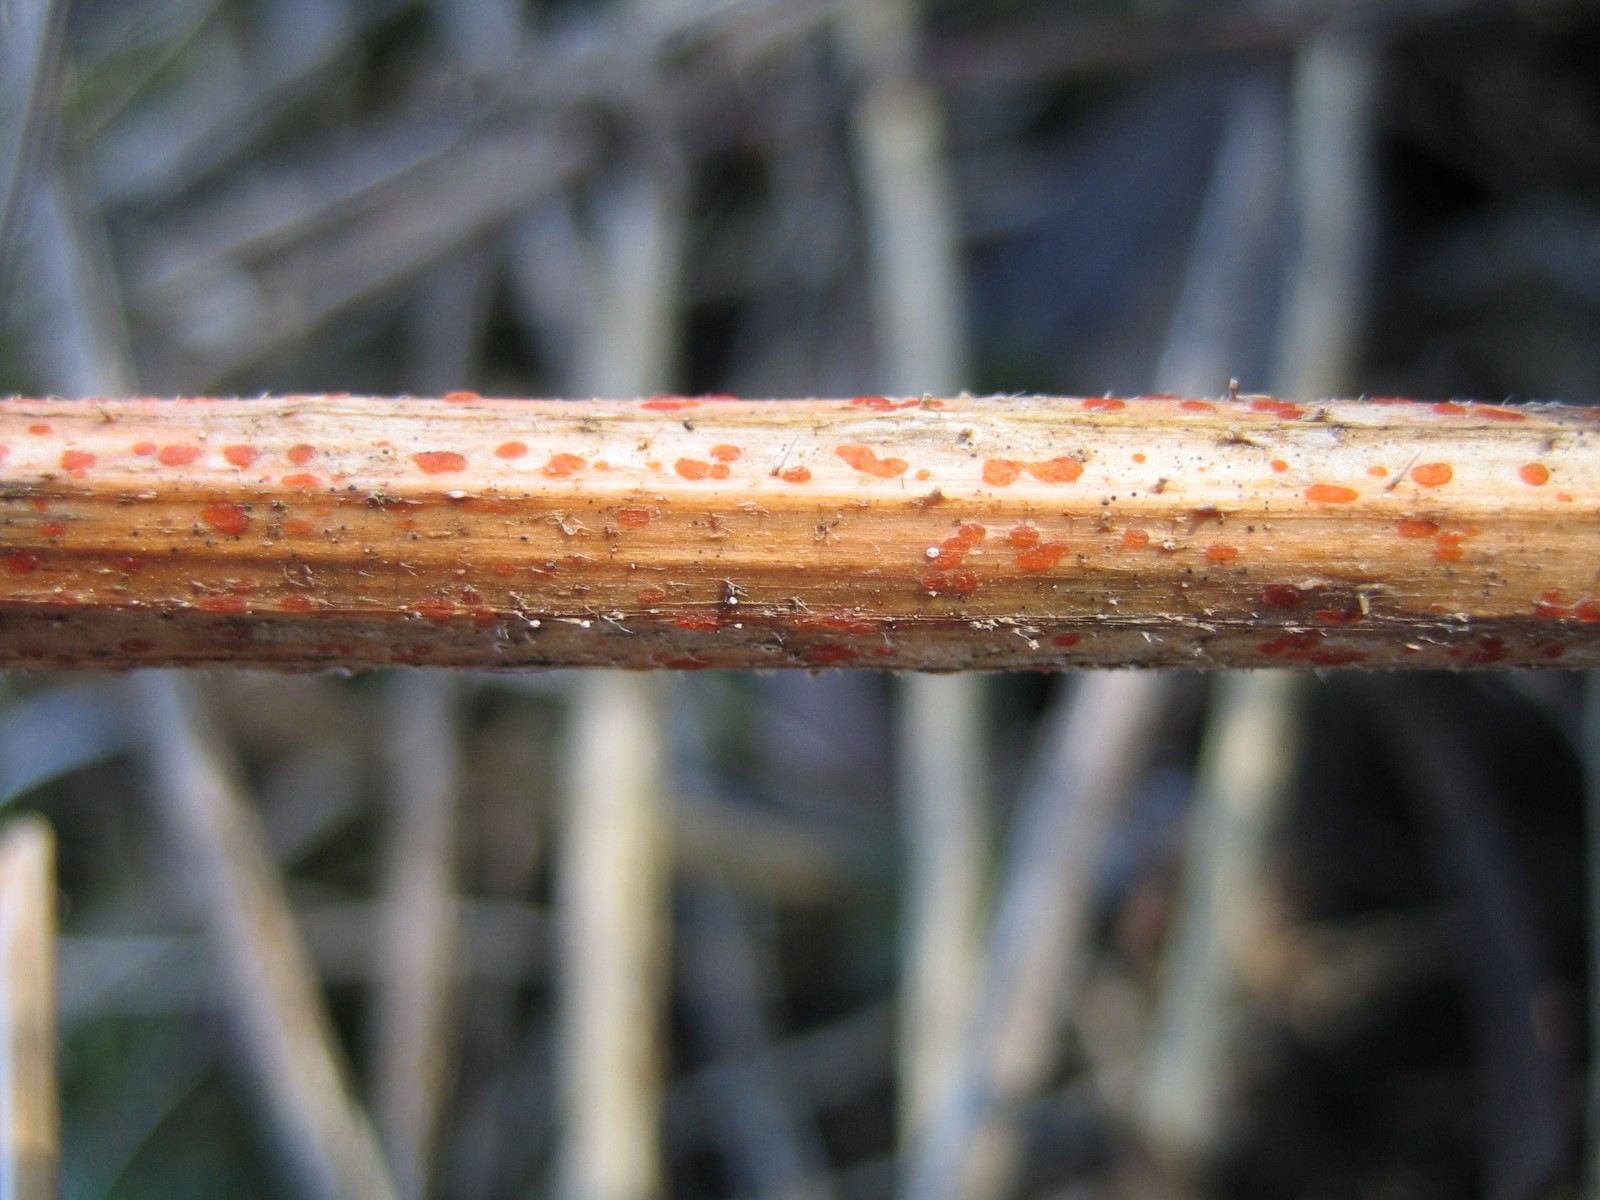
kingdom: Fungi
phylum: Ascomycota
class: Leotiomycetes
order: Helotiales
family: Calloriaceae
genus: Calloria
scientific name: Calloria urticae
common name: nælde-orangeskive
